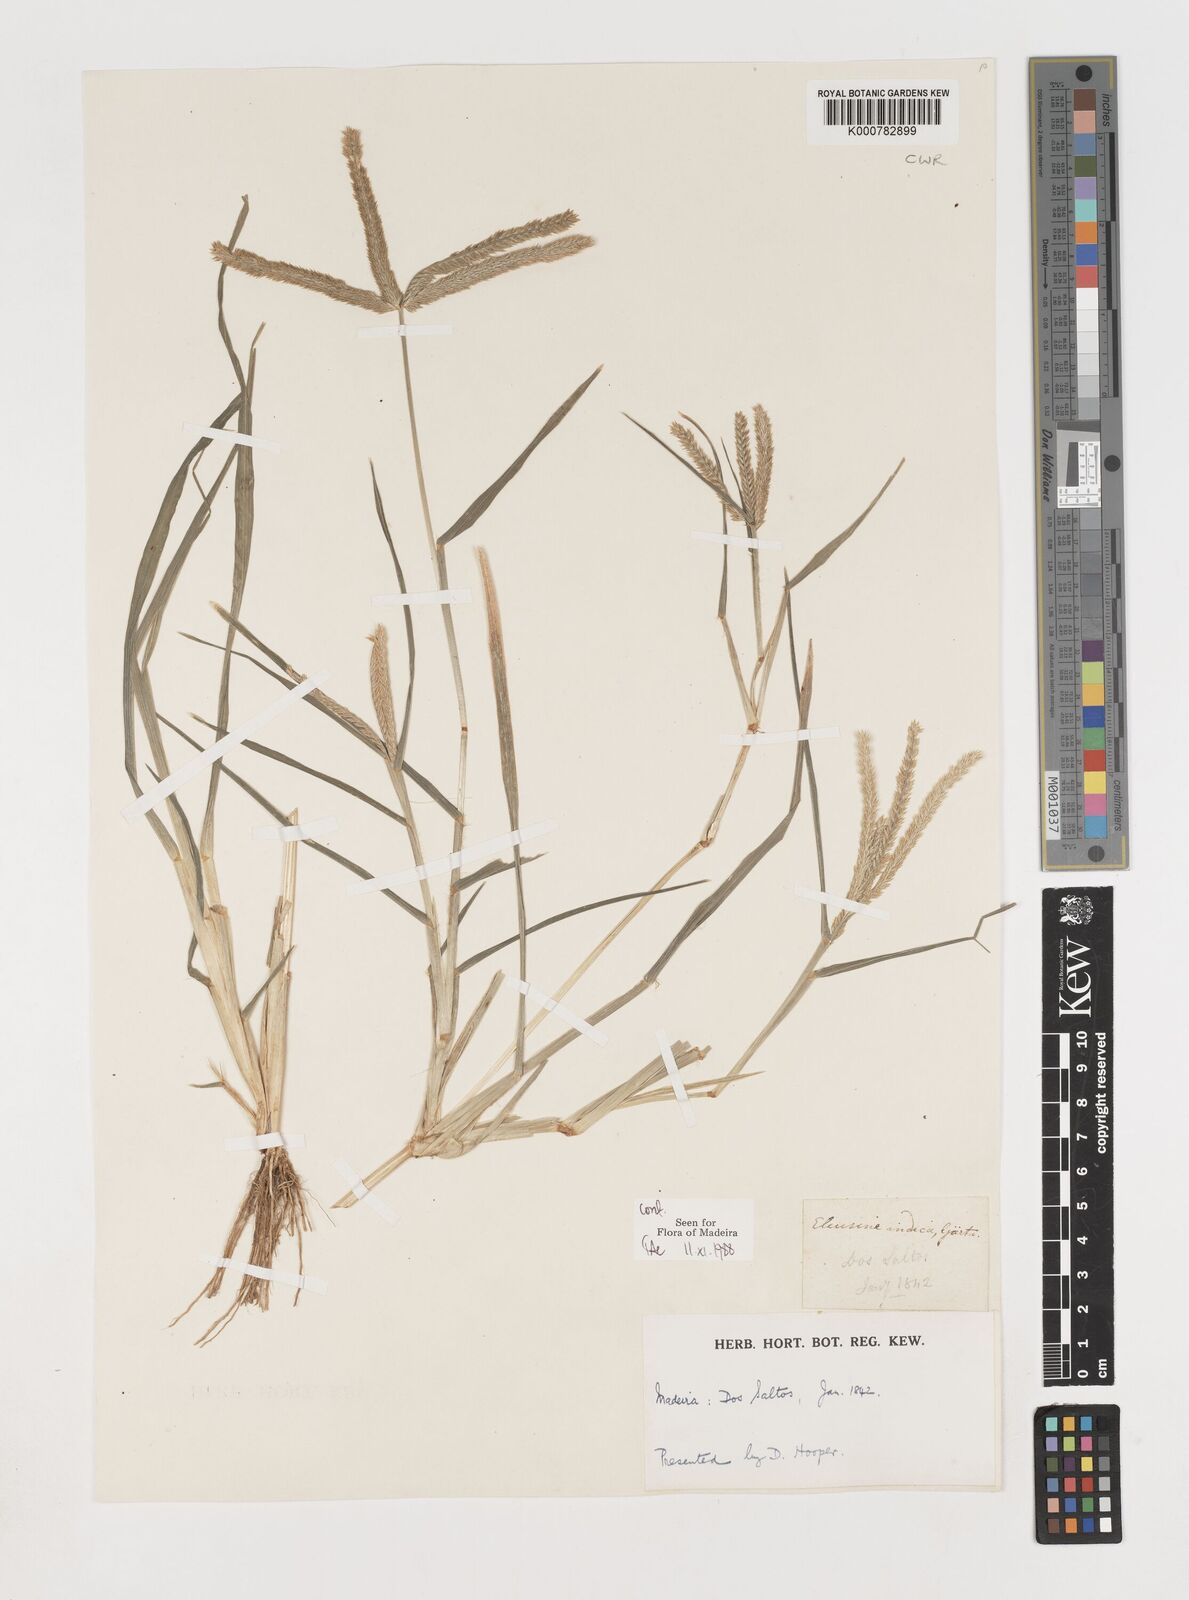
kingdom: Plantae
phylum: Tracheophyta
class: Liliopsida
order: Poales
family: Poaceae
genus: Eleusine
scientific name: Eleusine indica
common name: Yard-grass
